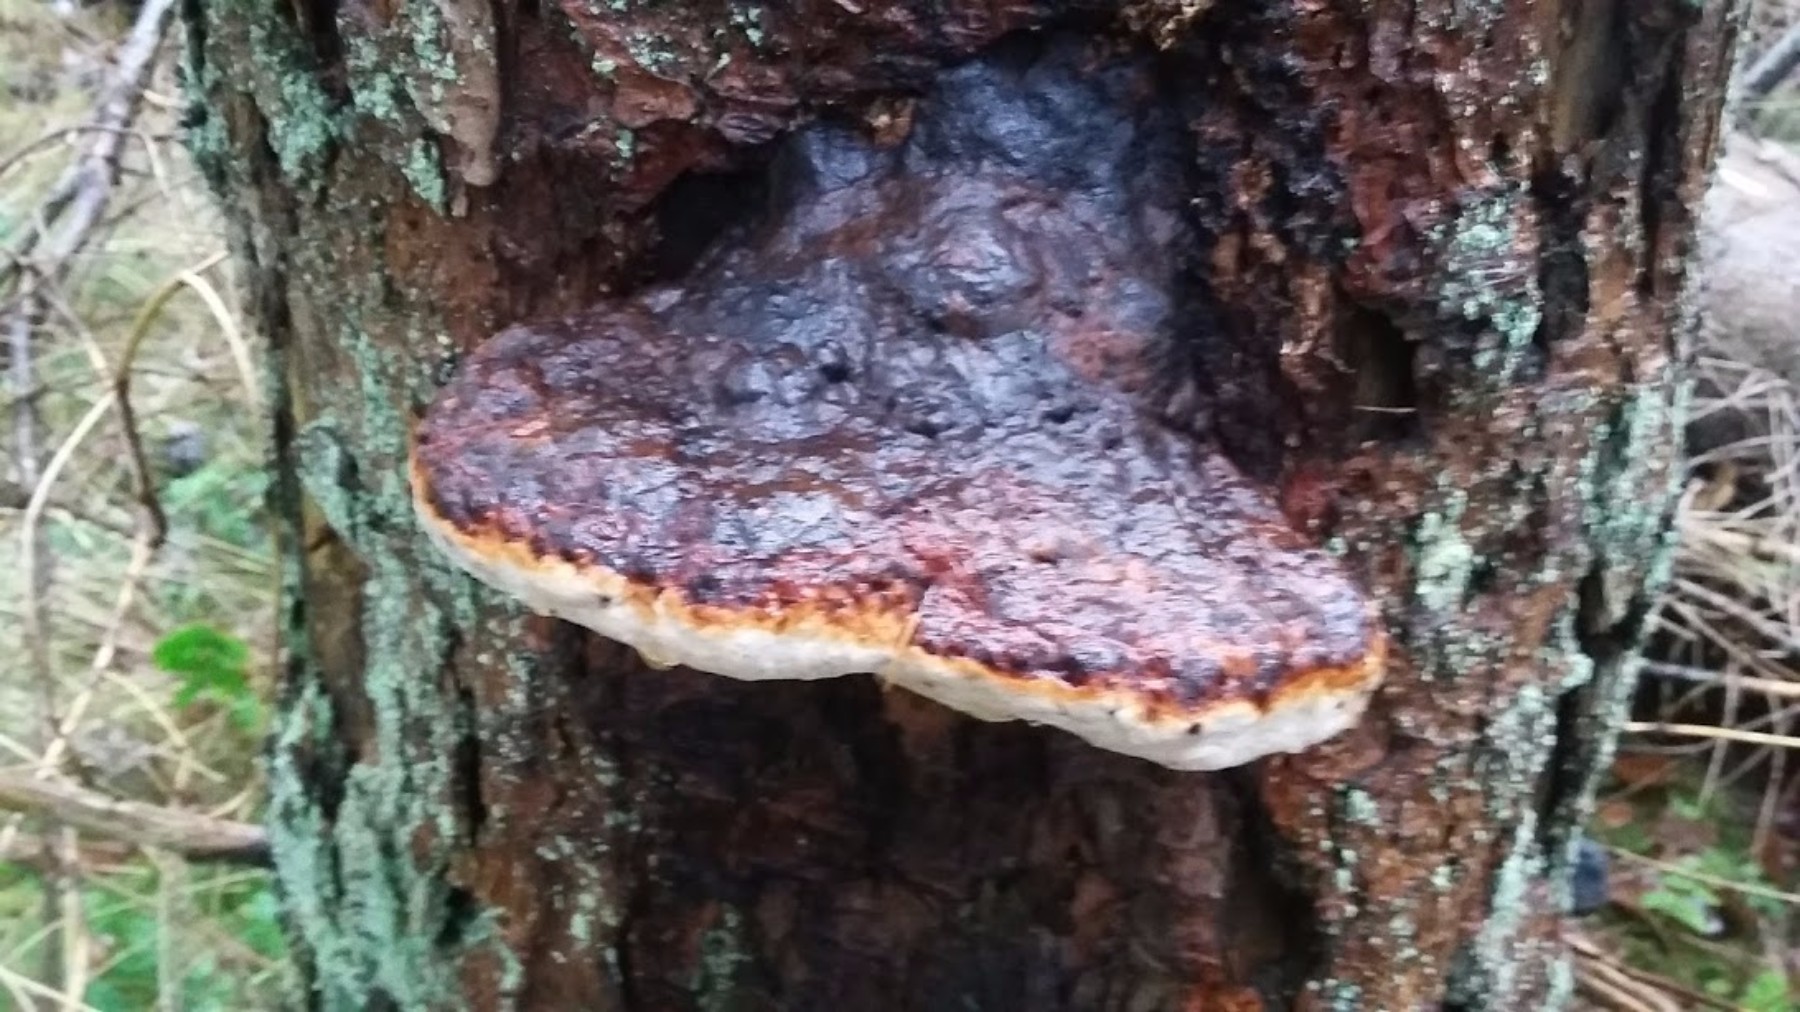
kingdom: Fungi
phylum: Basidiomycota
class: Agaricomycetes
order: Polyporales
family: Fomitopsidaceae
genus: Fomitopsis
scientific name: Fomitopsis pinicola
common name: randbæltet hovporesvamp
